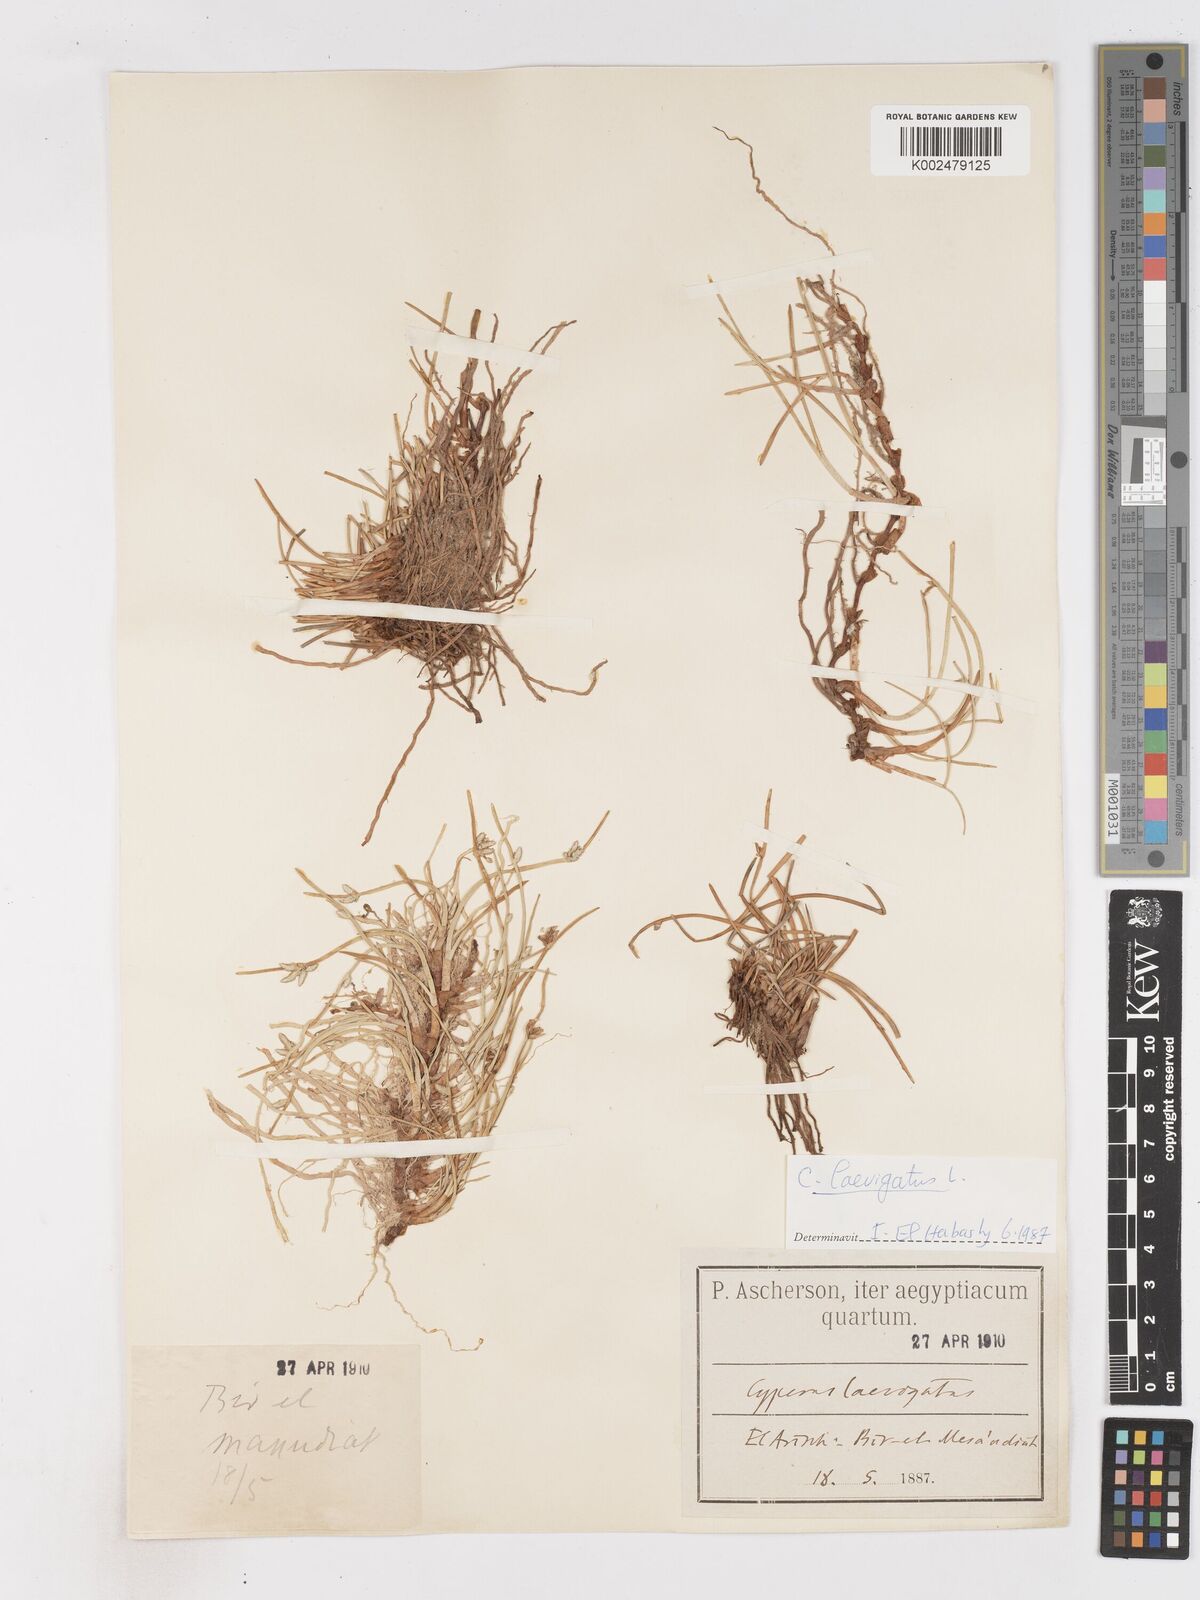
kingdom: Plantae
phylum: Tracheophyta
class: Liliopsida
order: Poales
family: Cyperaceae
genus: Cyperus
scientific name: Cyperus laevigatus
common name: Smooth flat sedge
